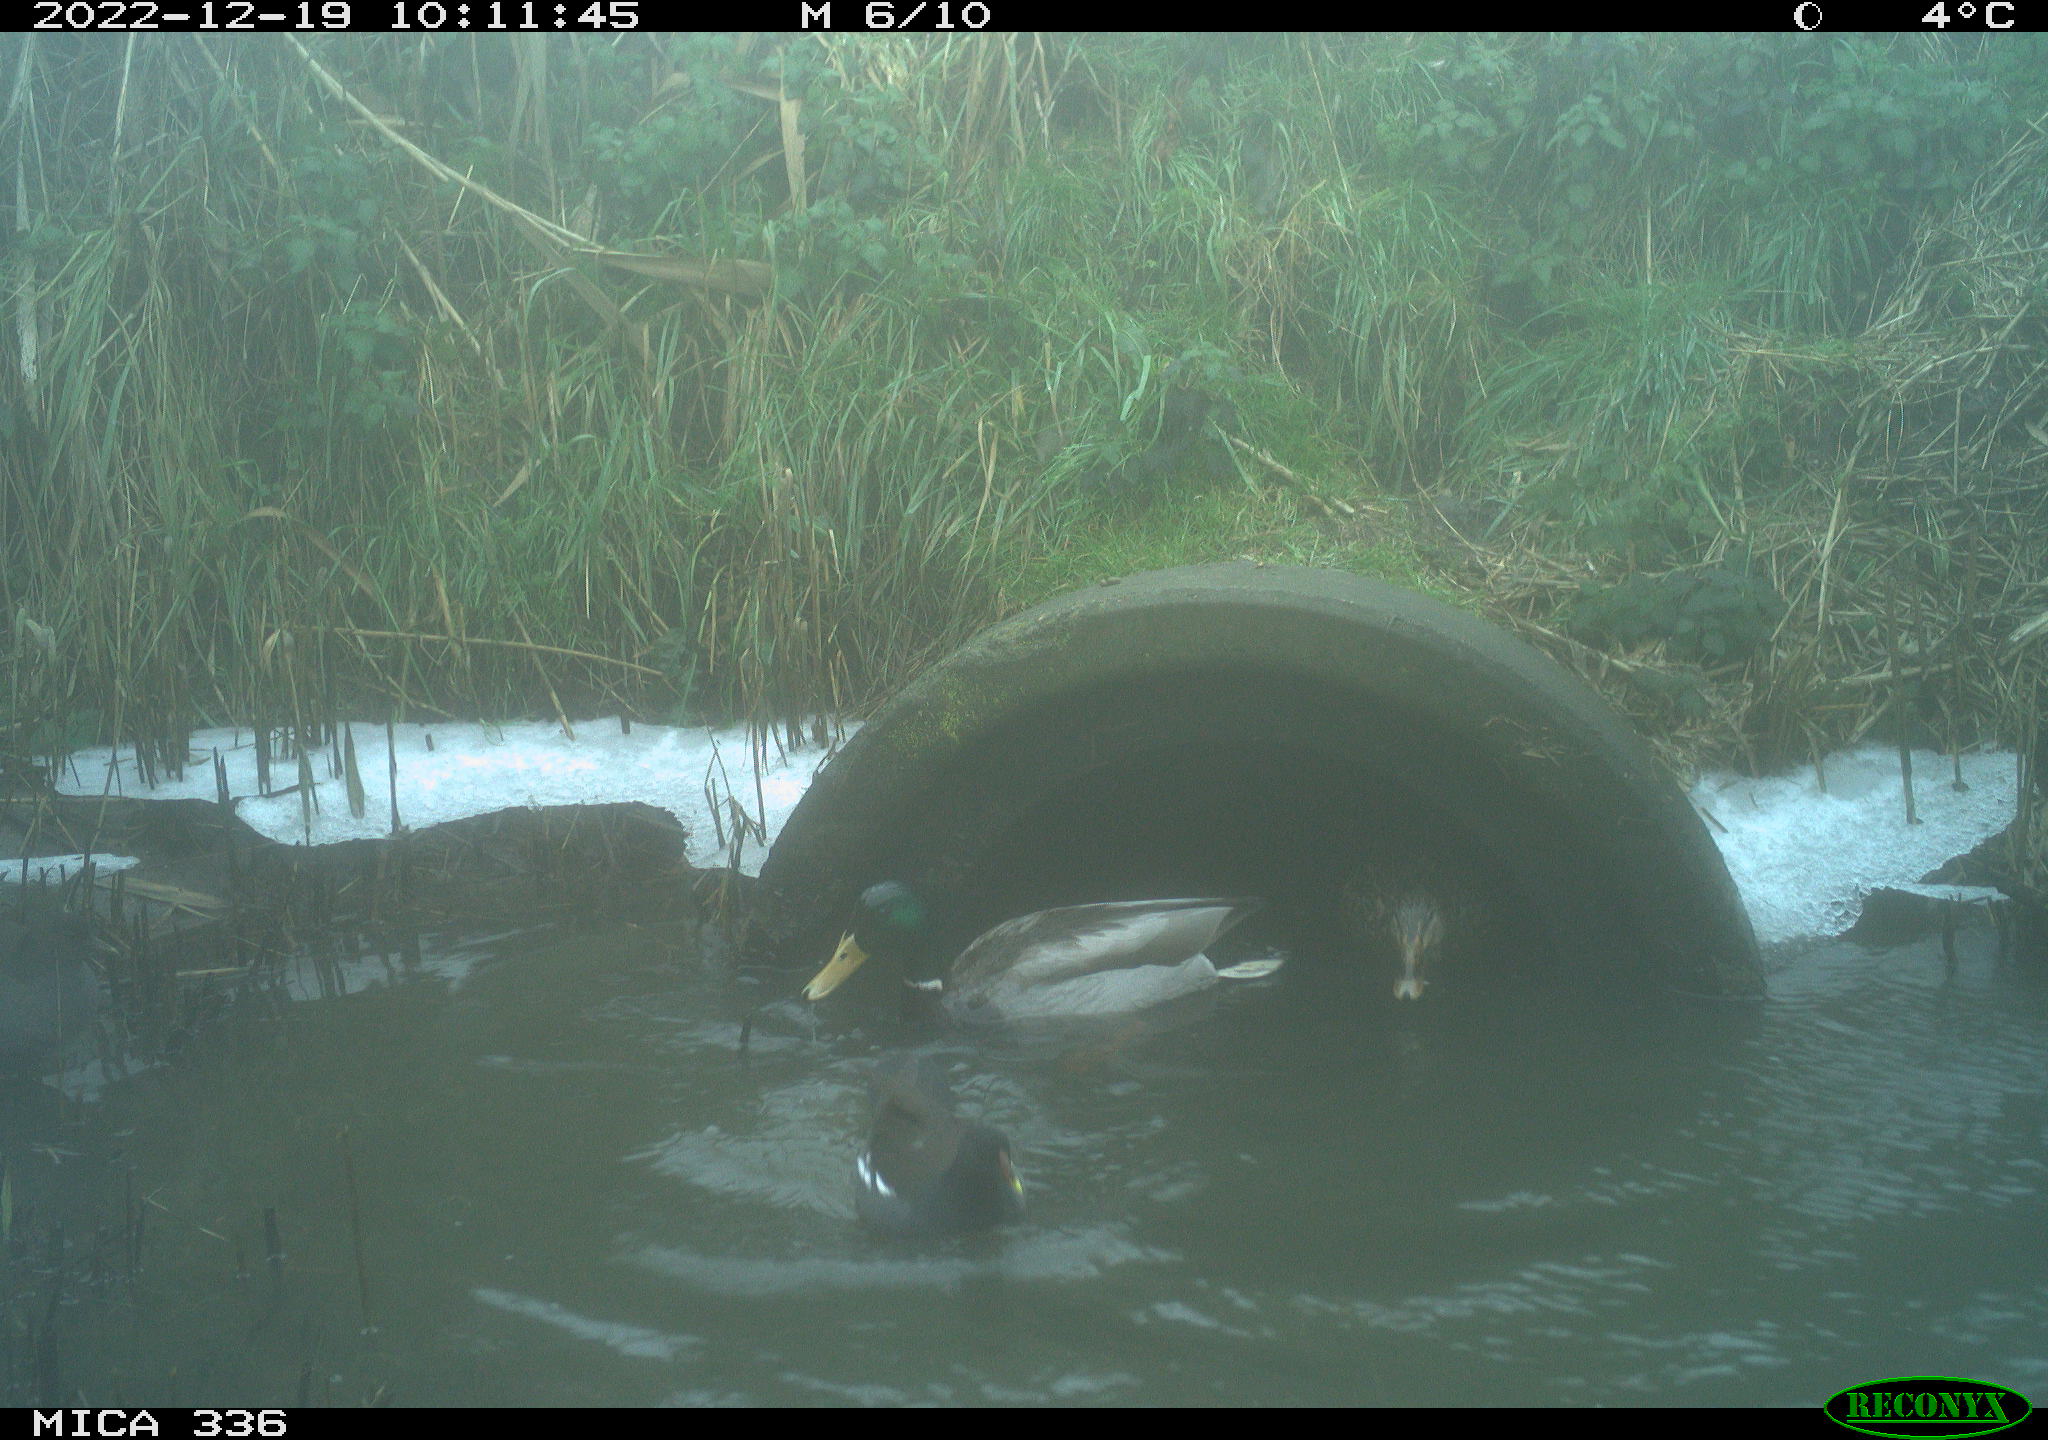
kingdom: Animalia
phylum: Chordata
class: Aves
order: Gruiformes
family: Rallidae
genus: Gallinula
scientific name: Gallinula chloropus
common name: Common moorhen
